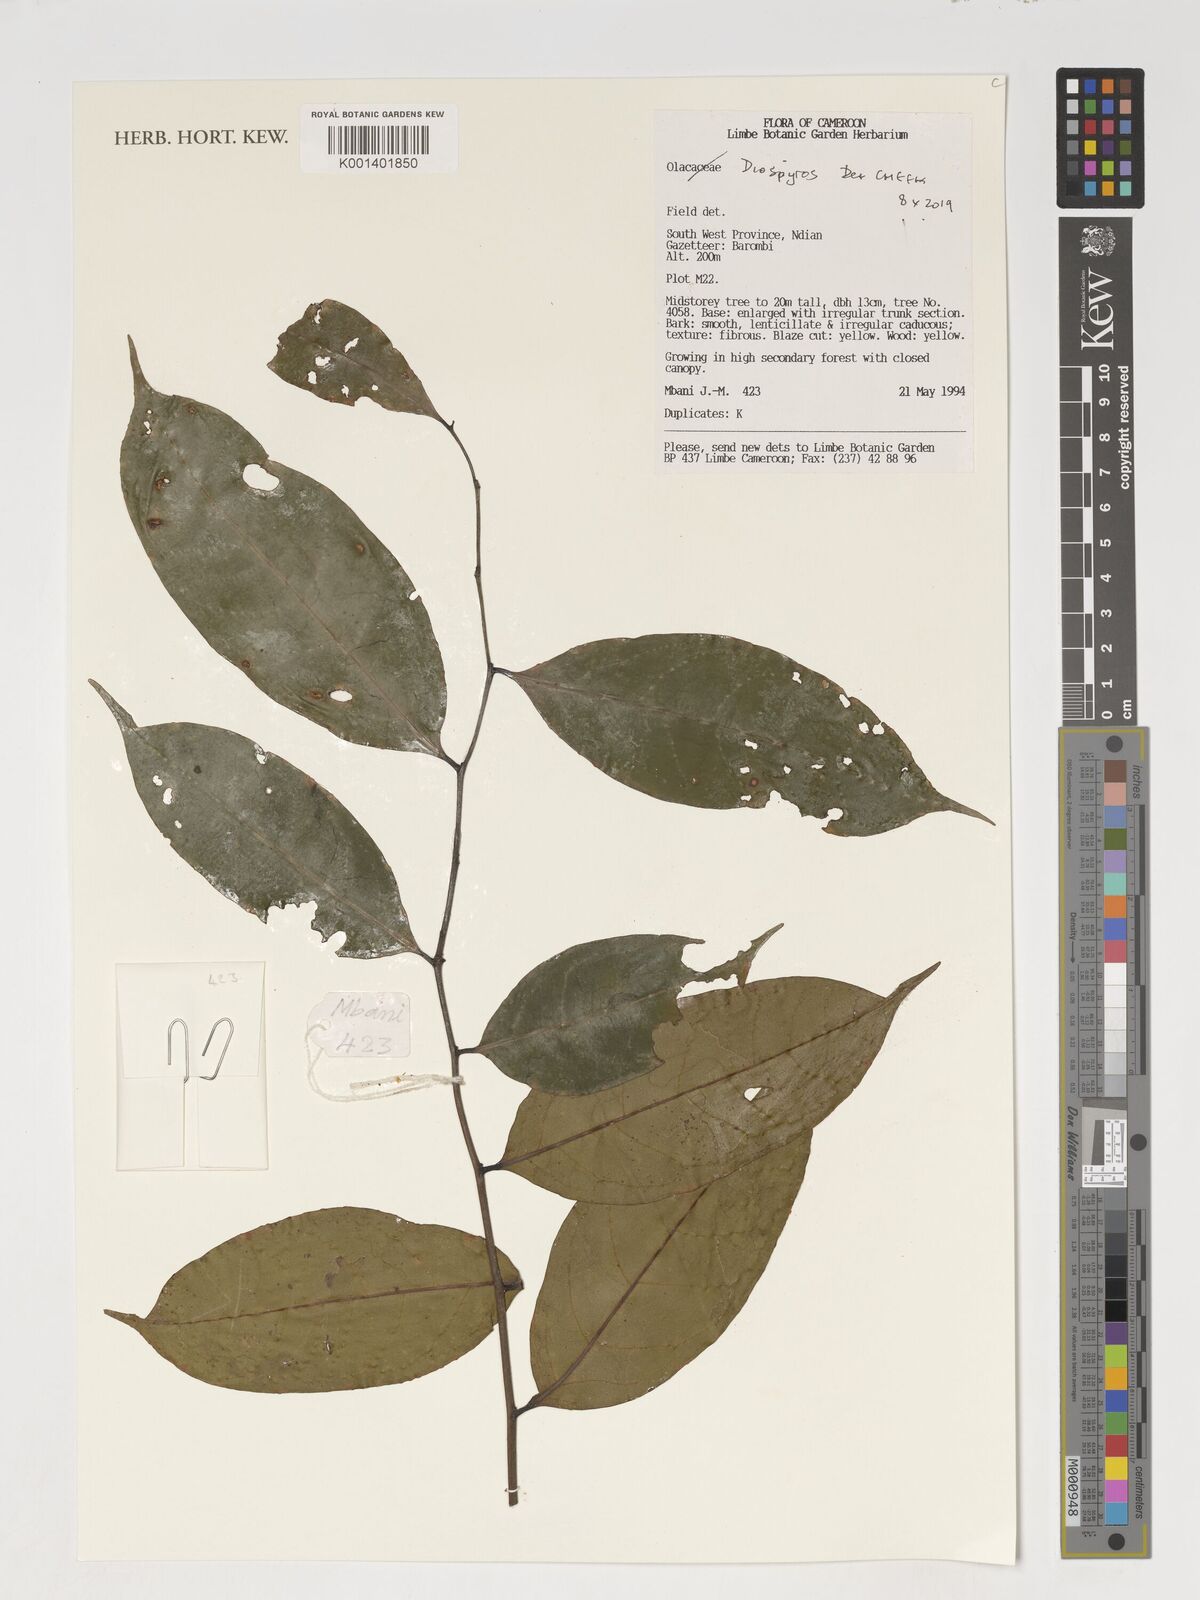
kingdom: Plantae
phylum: Tracheophyta
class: Magnoliopsida
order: Ericales
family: Ebenaceae
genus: Diospyros
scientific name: Diospyros
